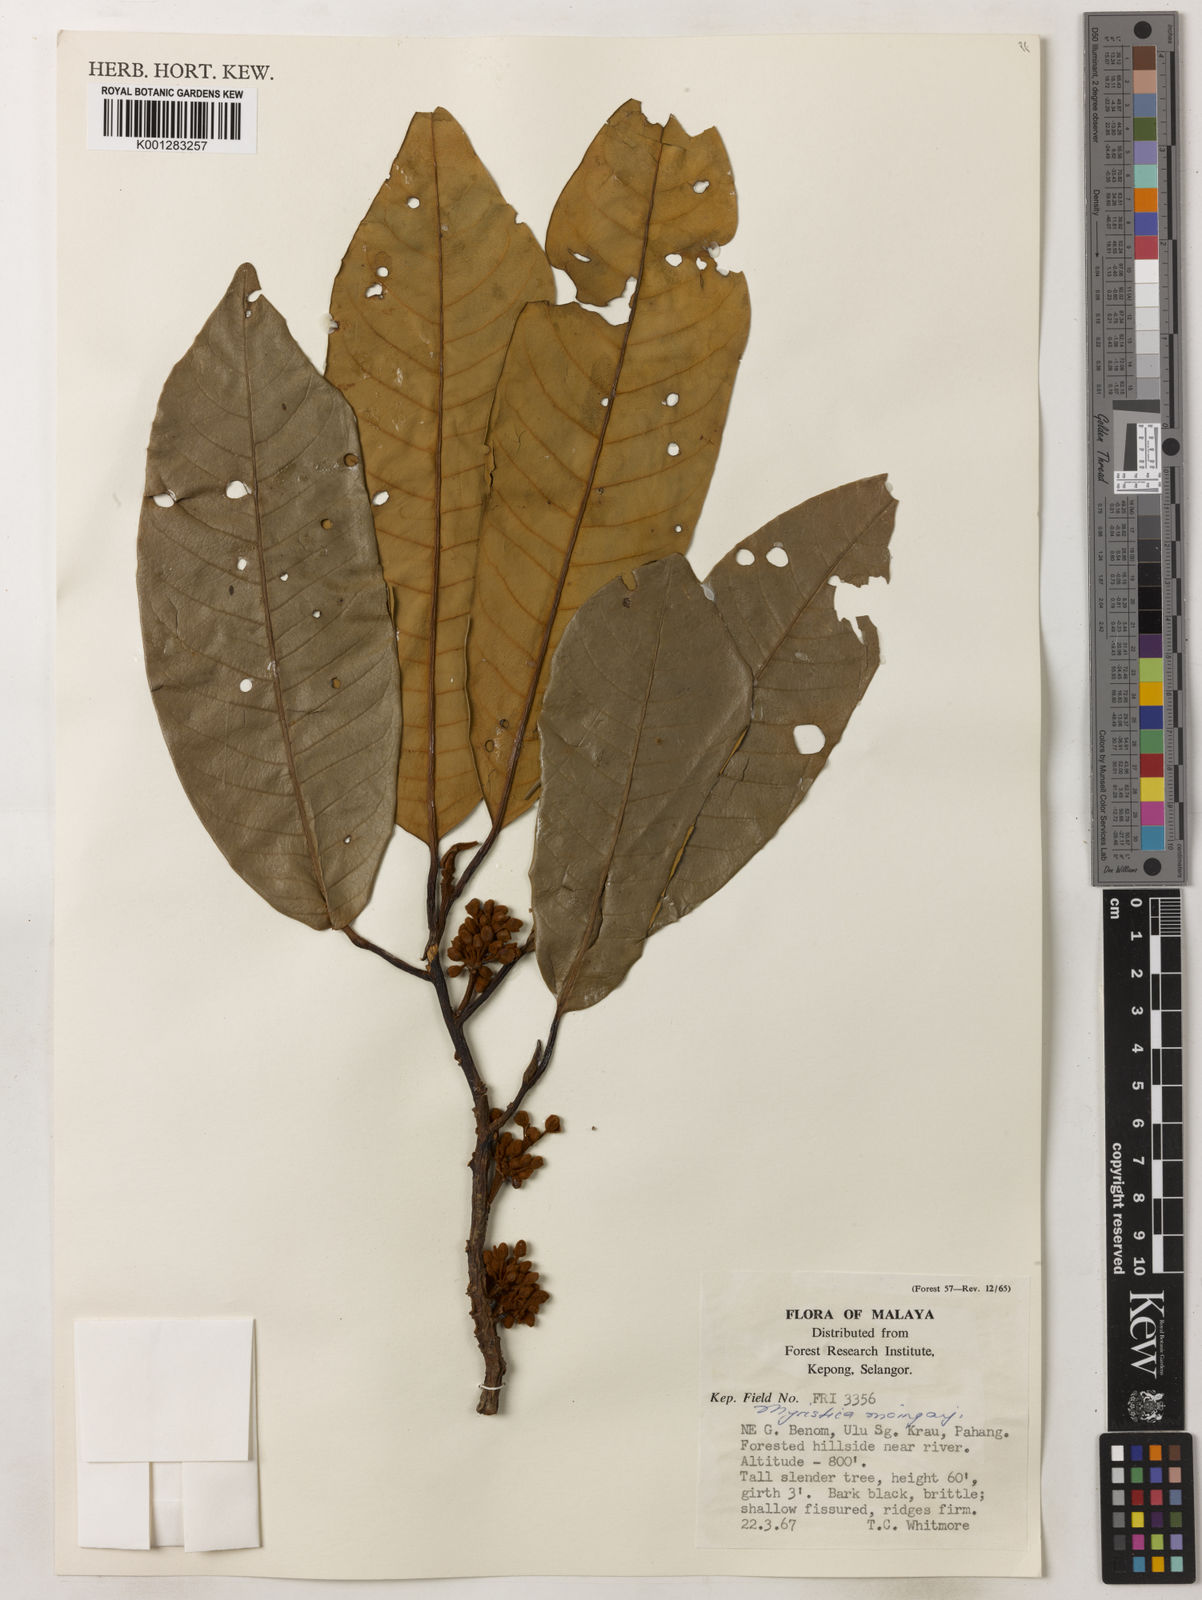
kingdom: Plantae
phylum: Tracheophyta
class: Magnoliopsida
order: Magnoliales
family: Myristicaceae
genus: Myristica
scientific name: Myristica maingayi
